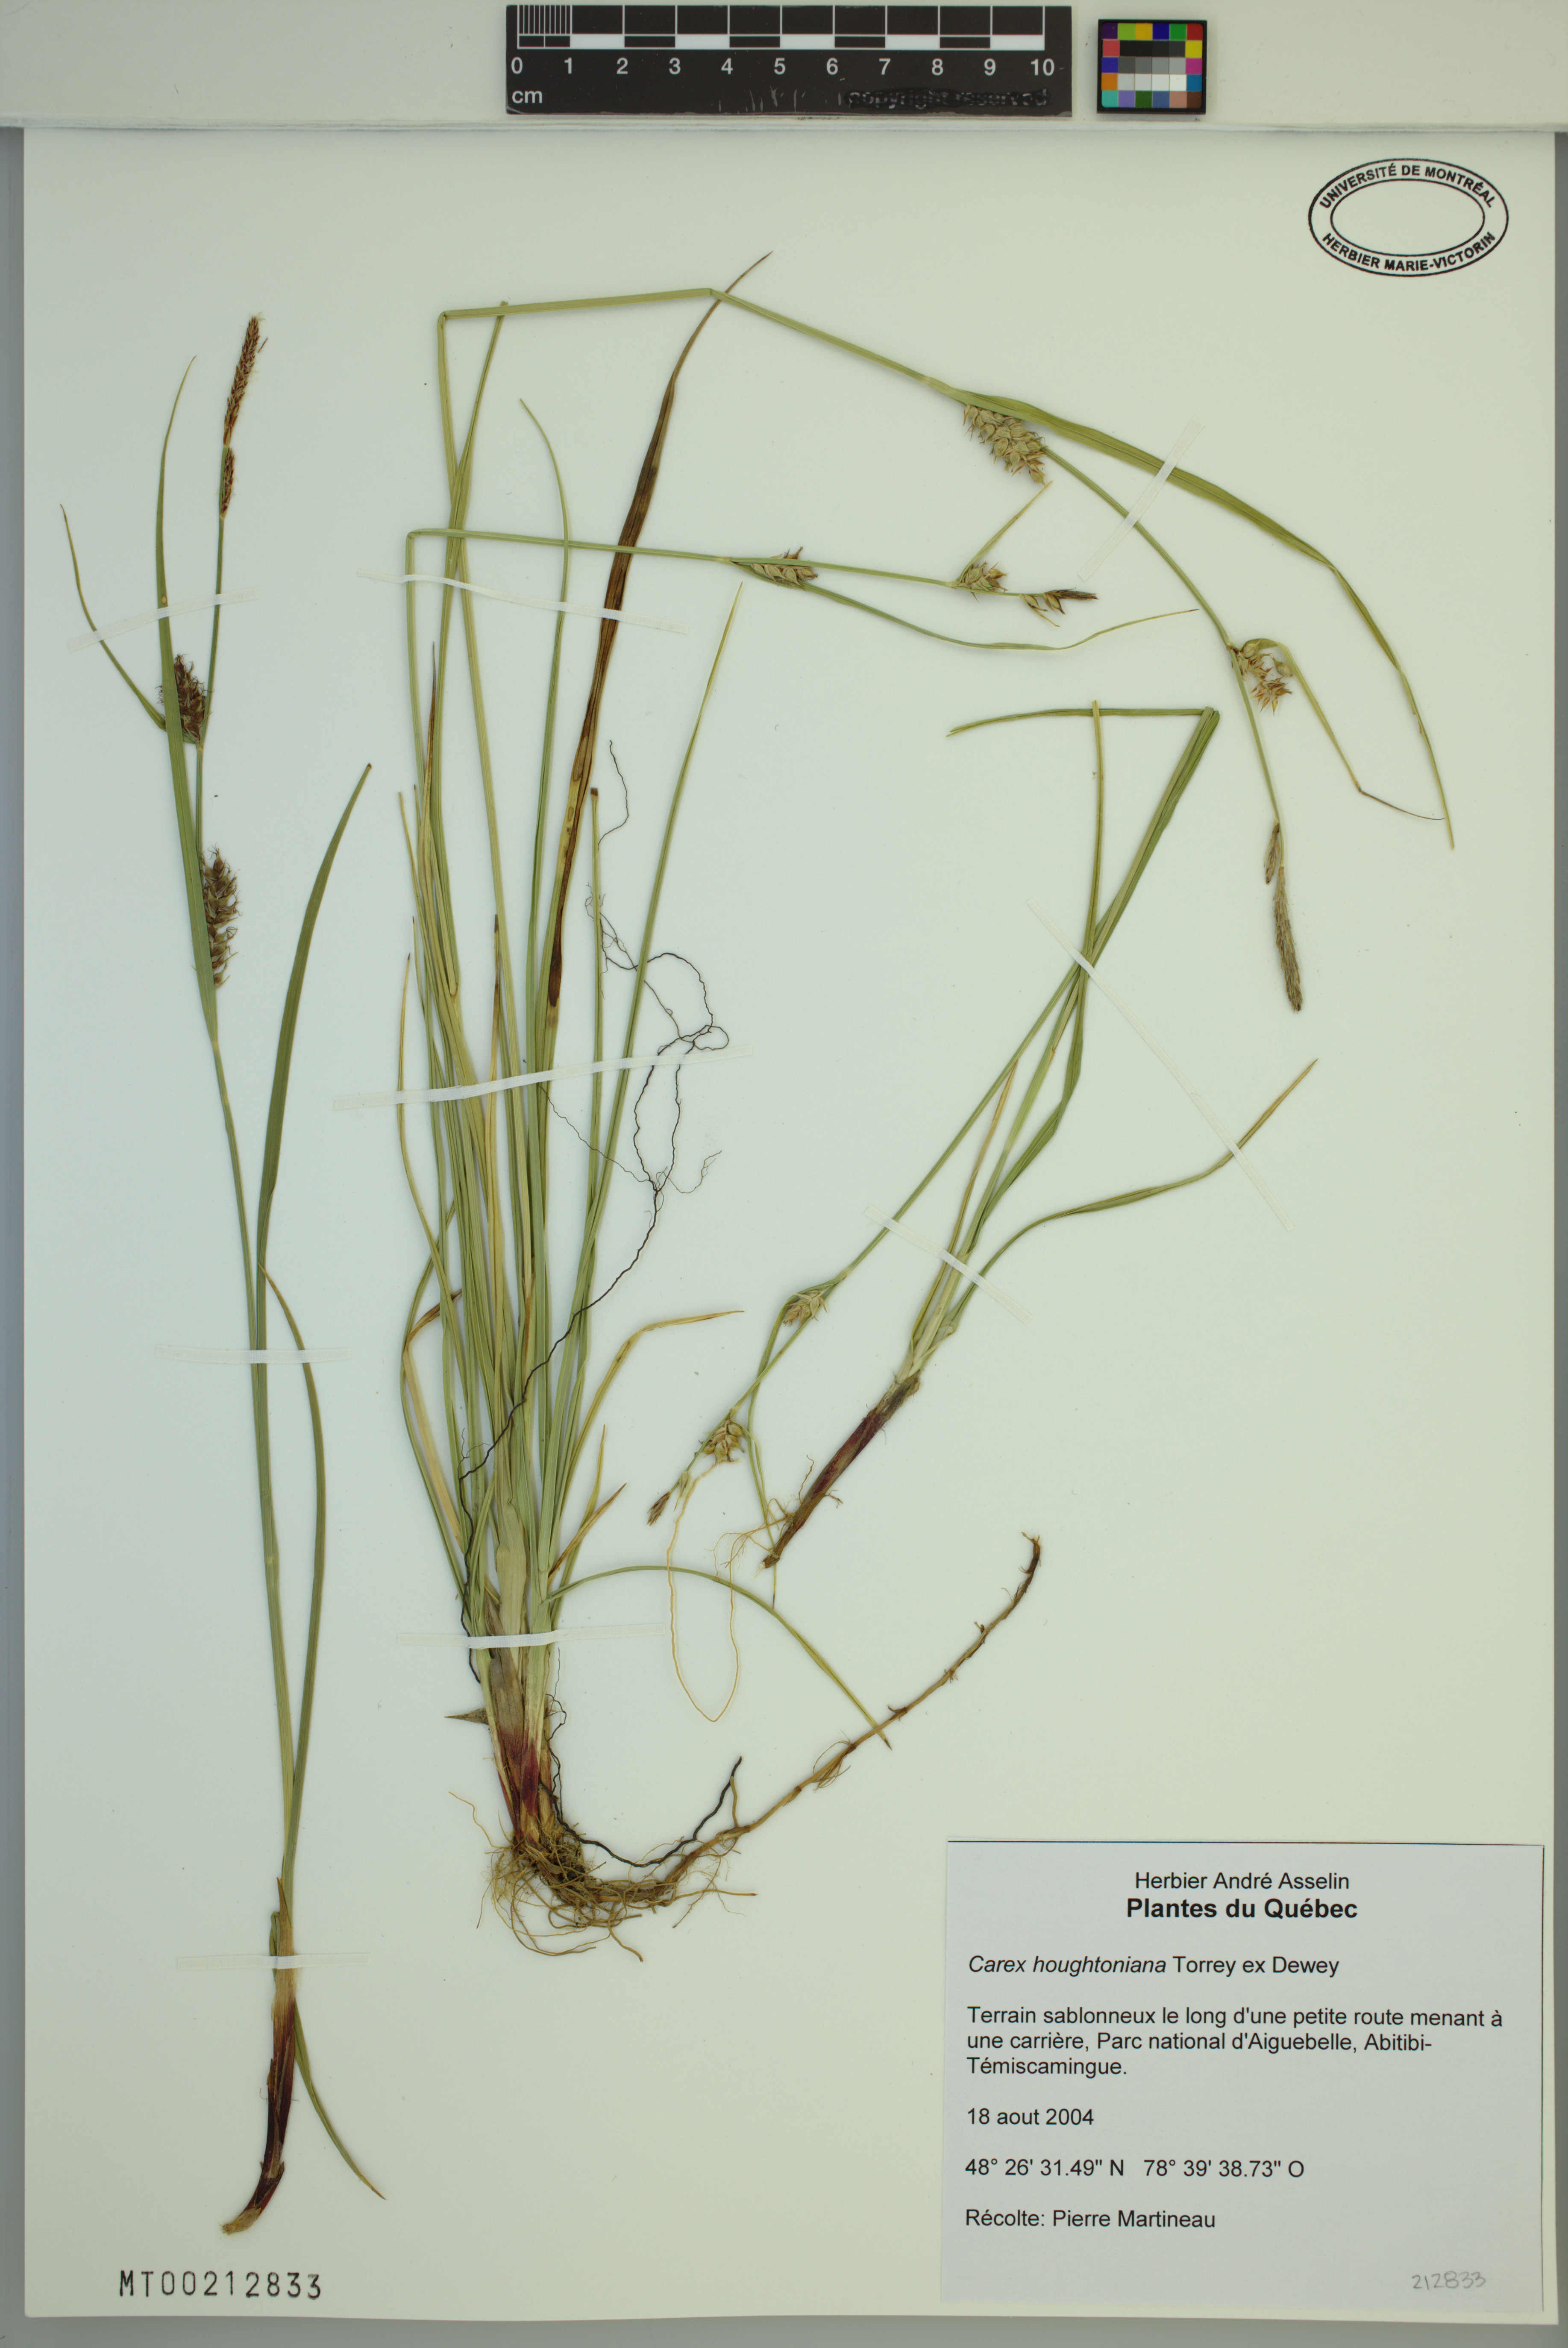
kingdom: Plantae
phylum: Tracheophyta
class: Liliopsida
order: Poales
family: Cyperaceae
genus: Carex
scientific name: Carex houghtoniana
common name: Houghton's sedge
